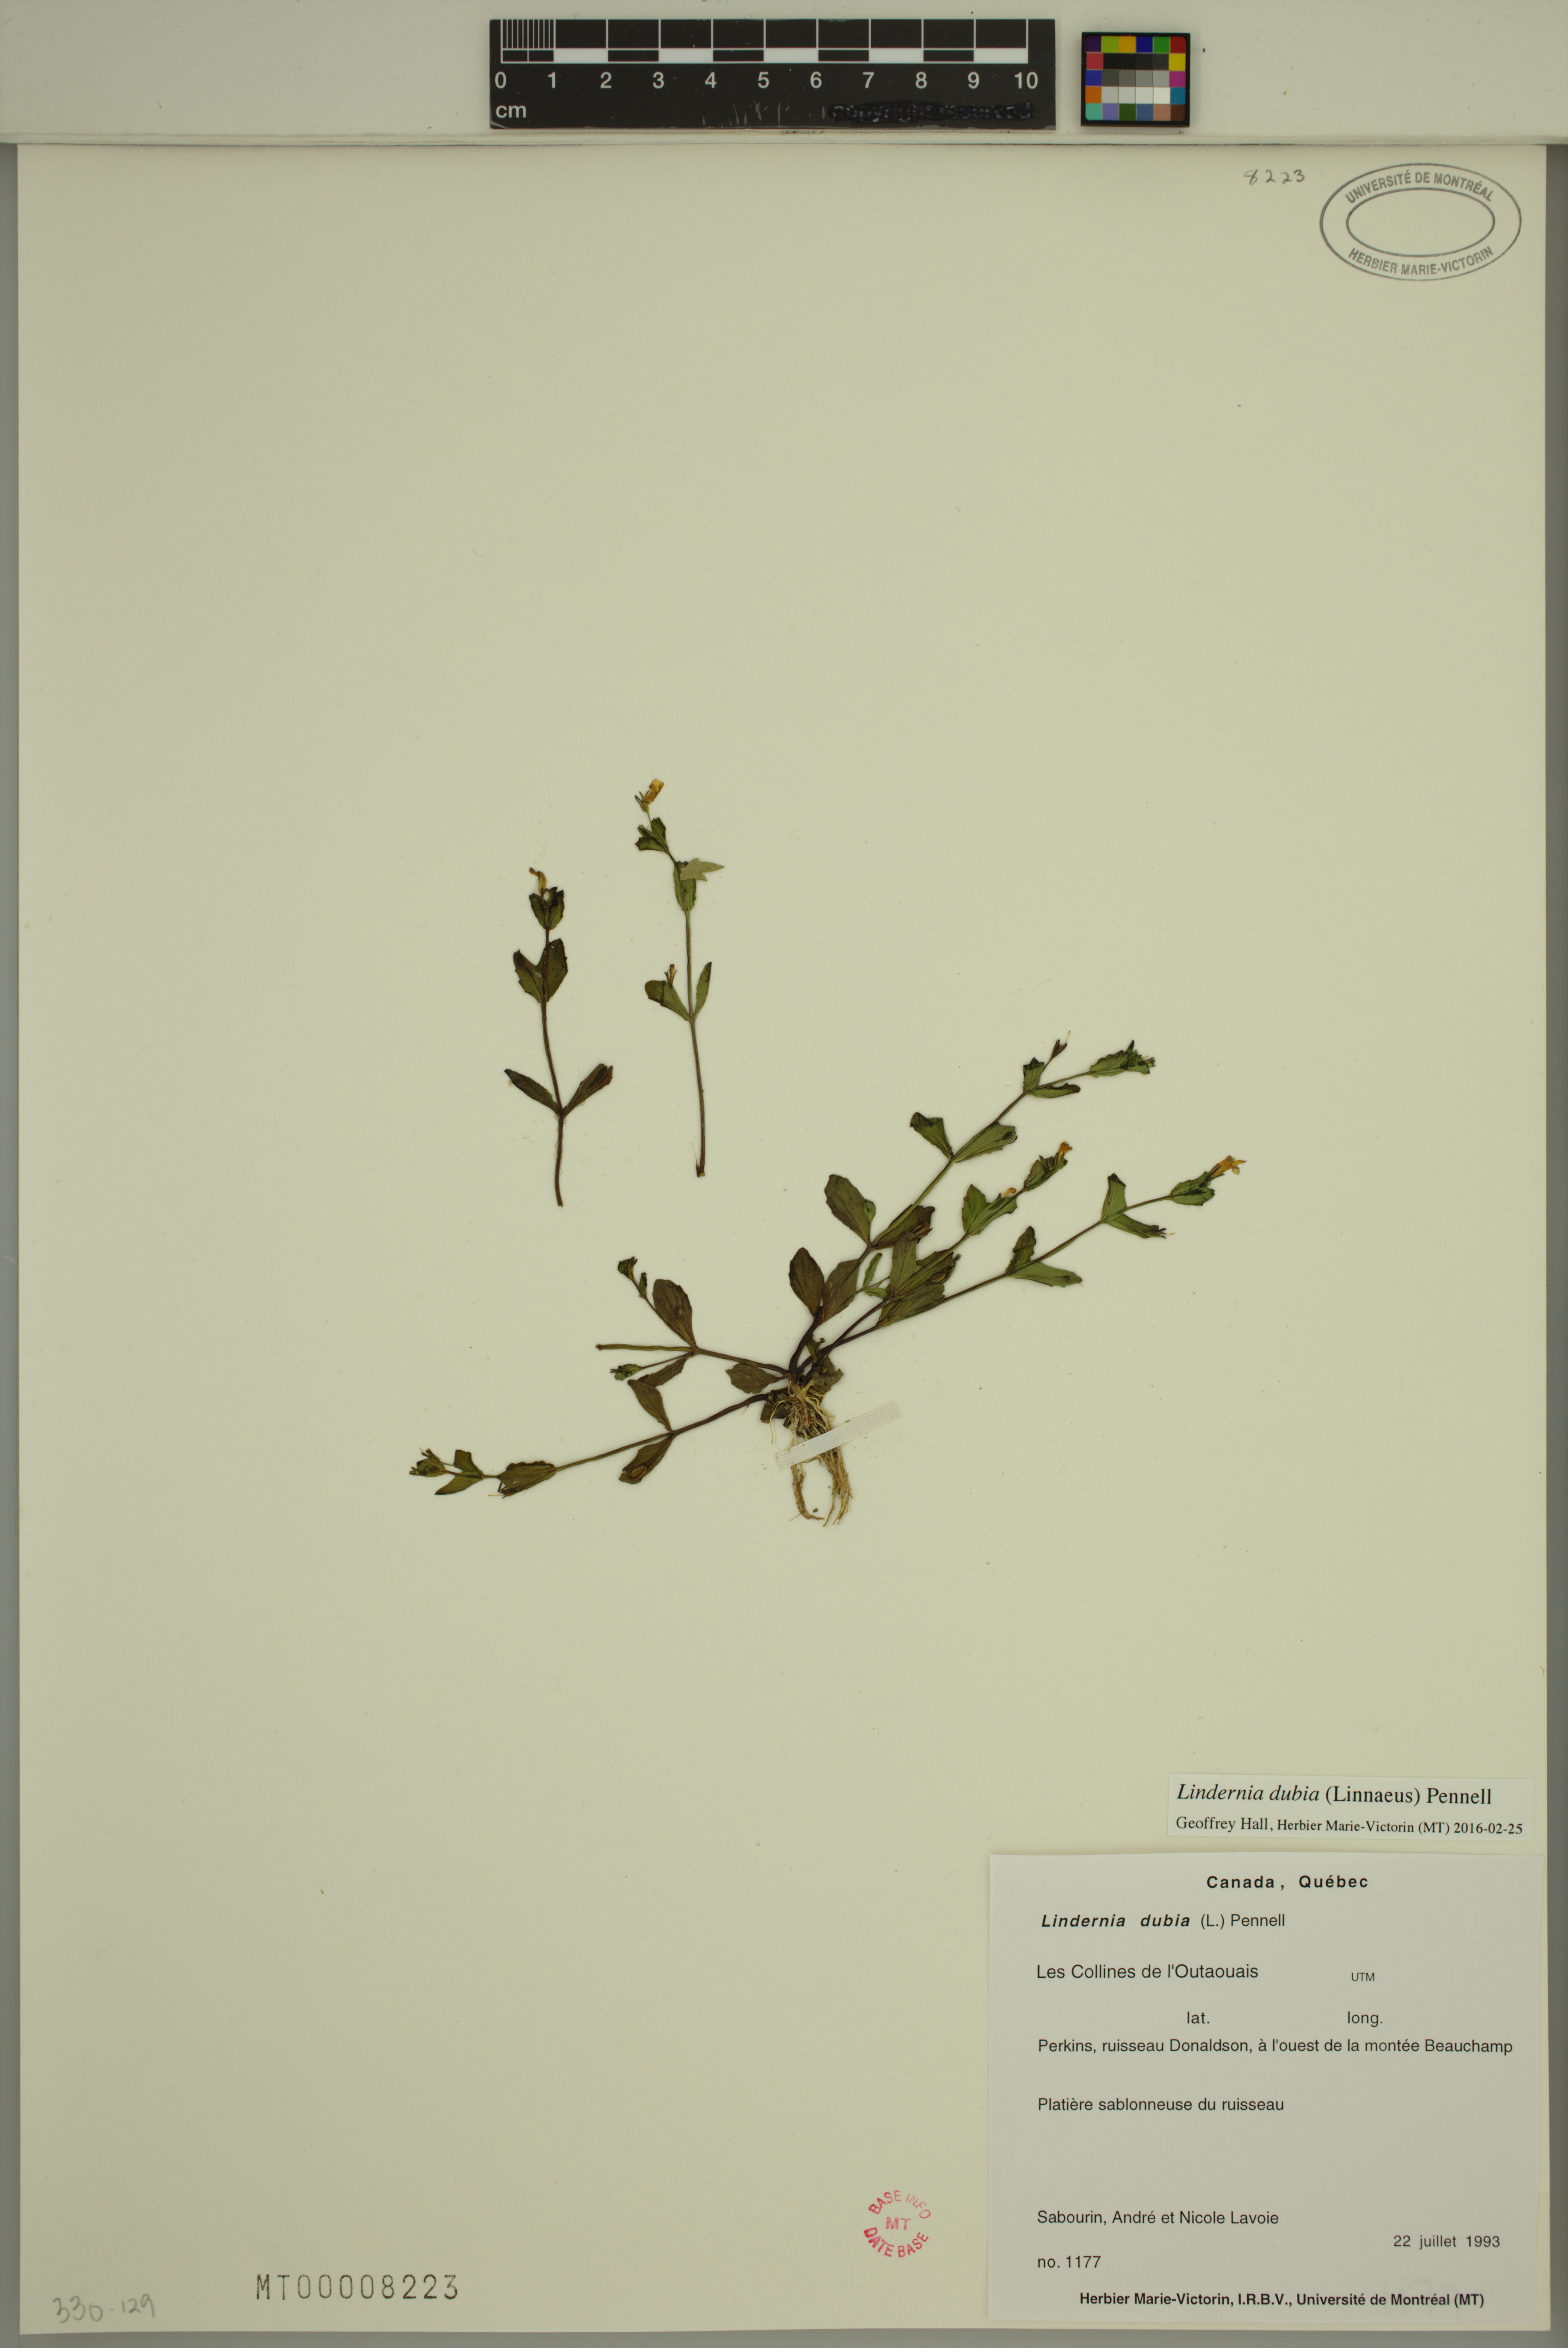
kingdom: Plantae
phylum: Tracheophyta
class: Magnoliopsida
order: Lamiales
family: Linderniaceae
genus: Lindernia
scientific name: Lindernia dubia
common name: Annual false pimpernel
